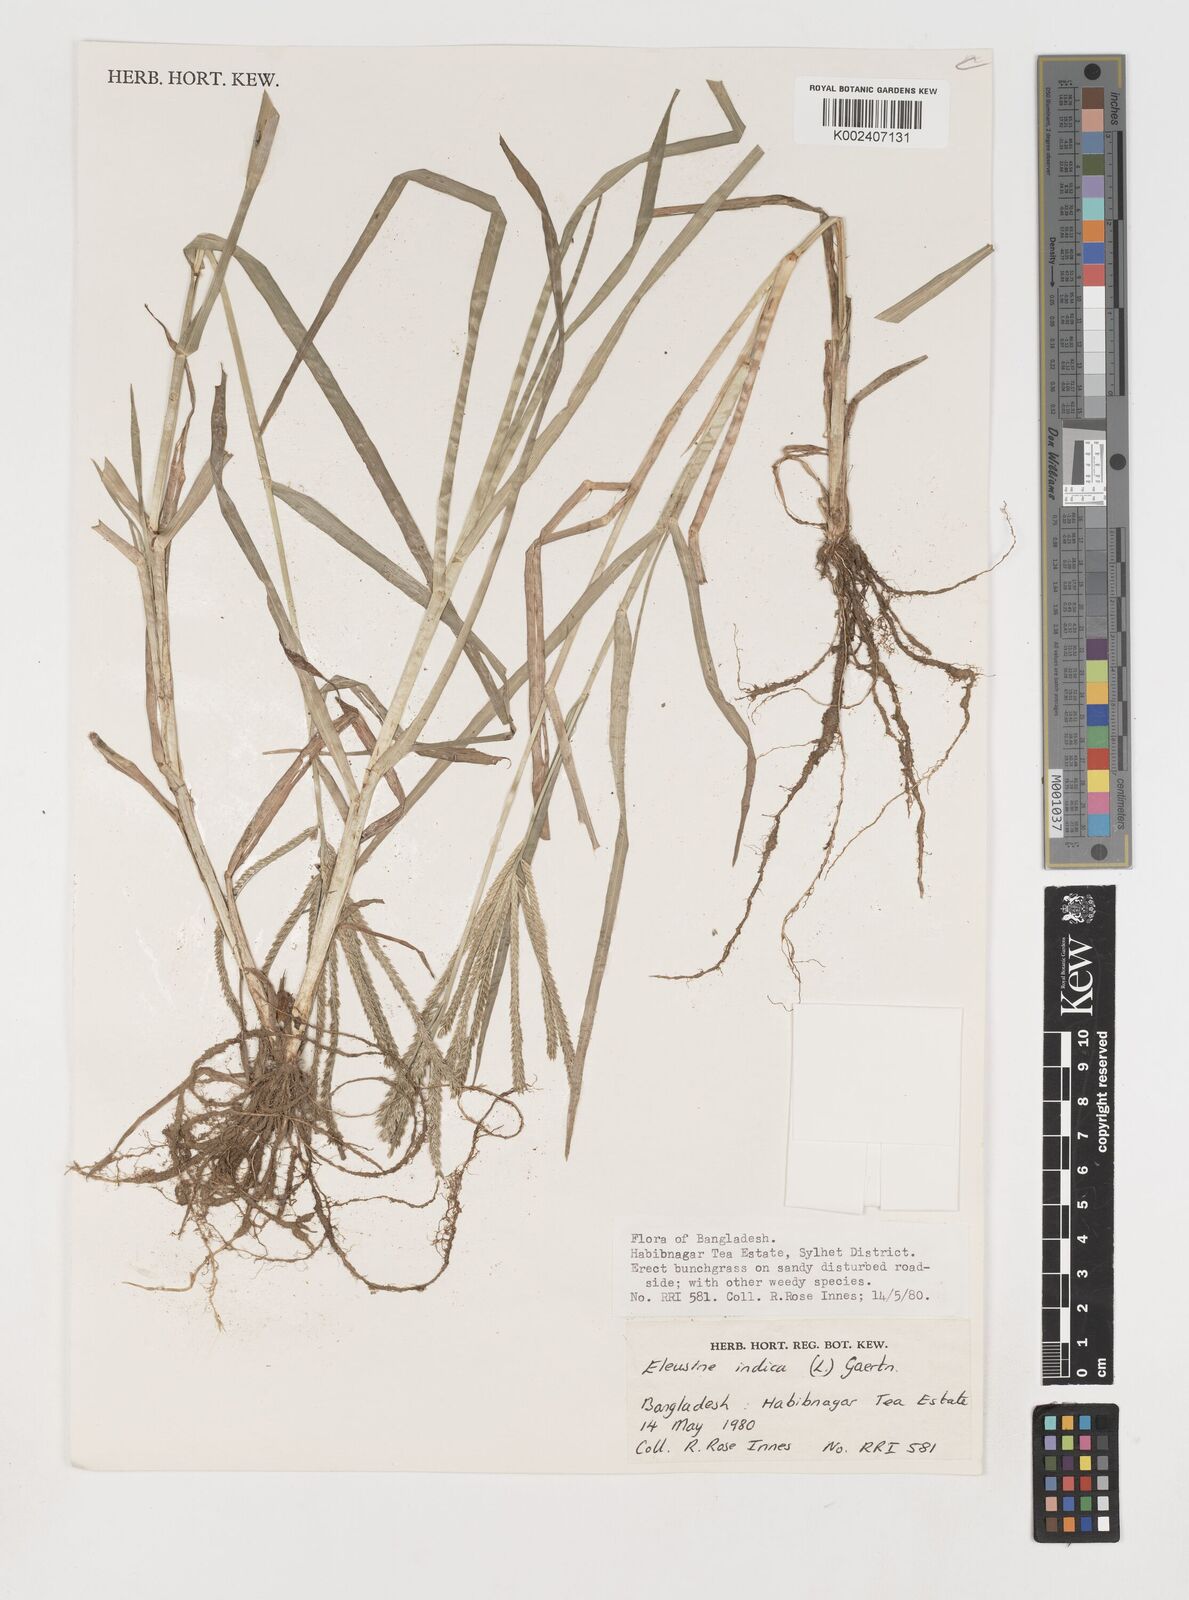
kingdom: Plantae
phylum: Tracheophyta
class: Liliopsida
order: Poales
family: Poaceae
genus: Eleusine
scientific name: Eleusine indica
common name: Yard-grass
